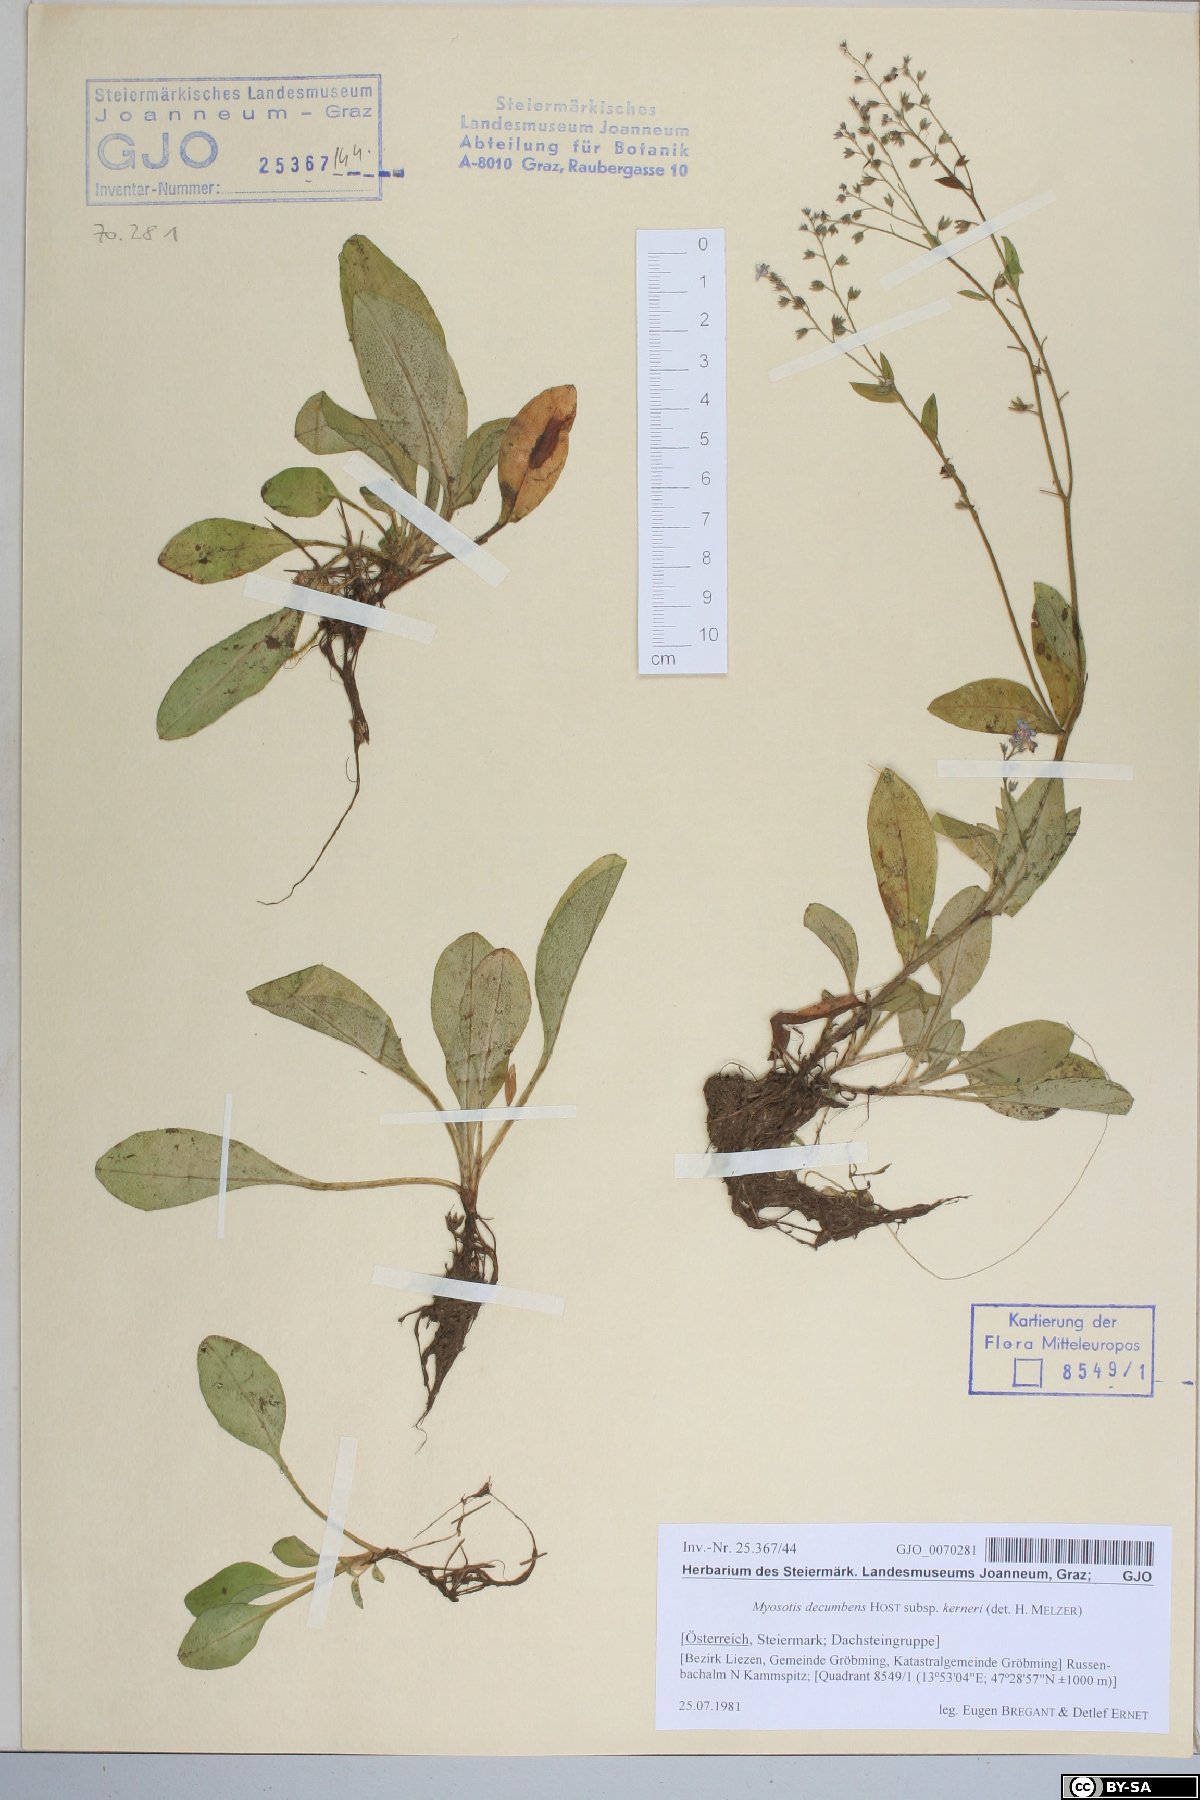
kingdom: Plantae
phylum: Tracheophyta
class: Magnoliopsida
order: Boraginales
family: Boraginaceae
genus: Myosotis
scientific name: Myosotis decumbens
